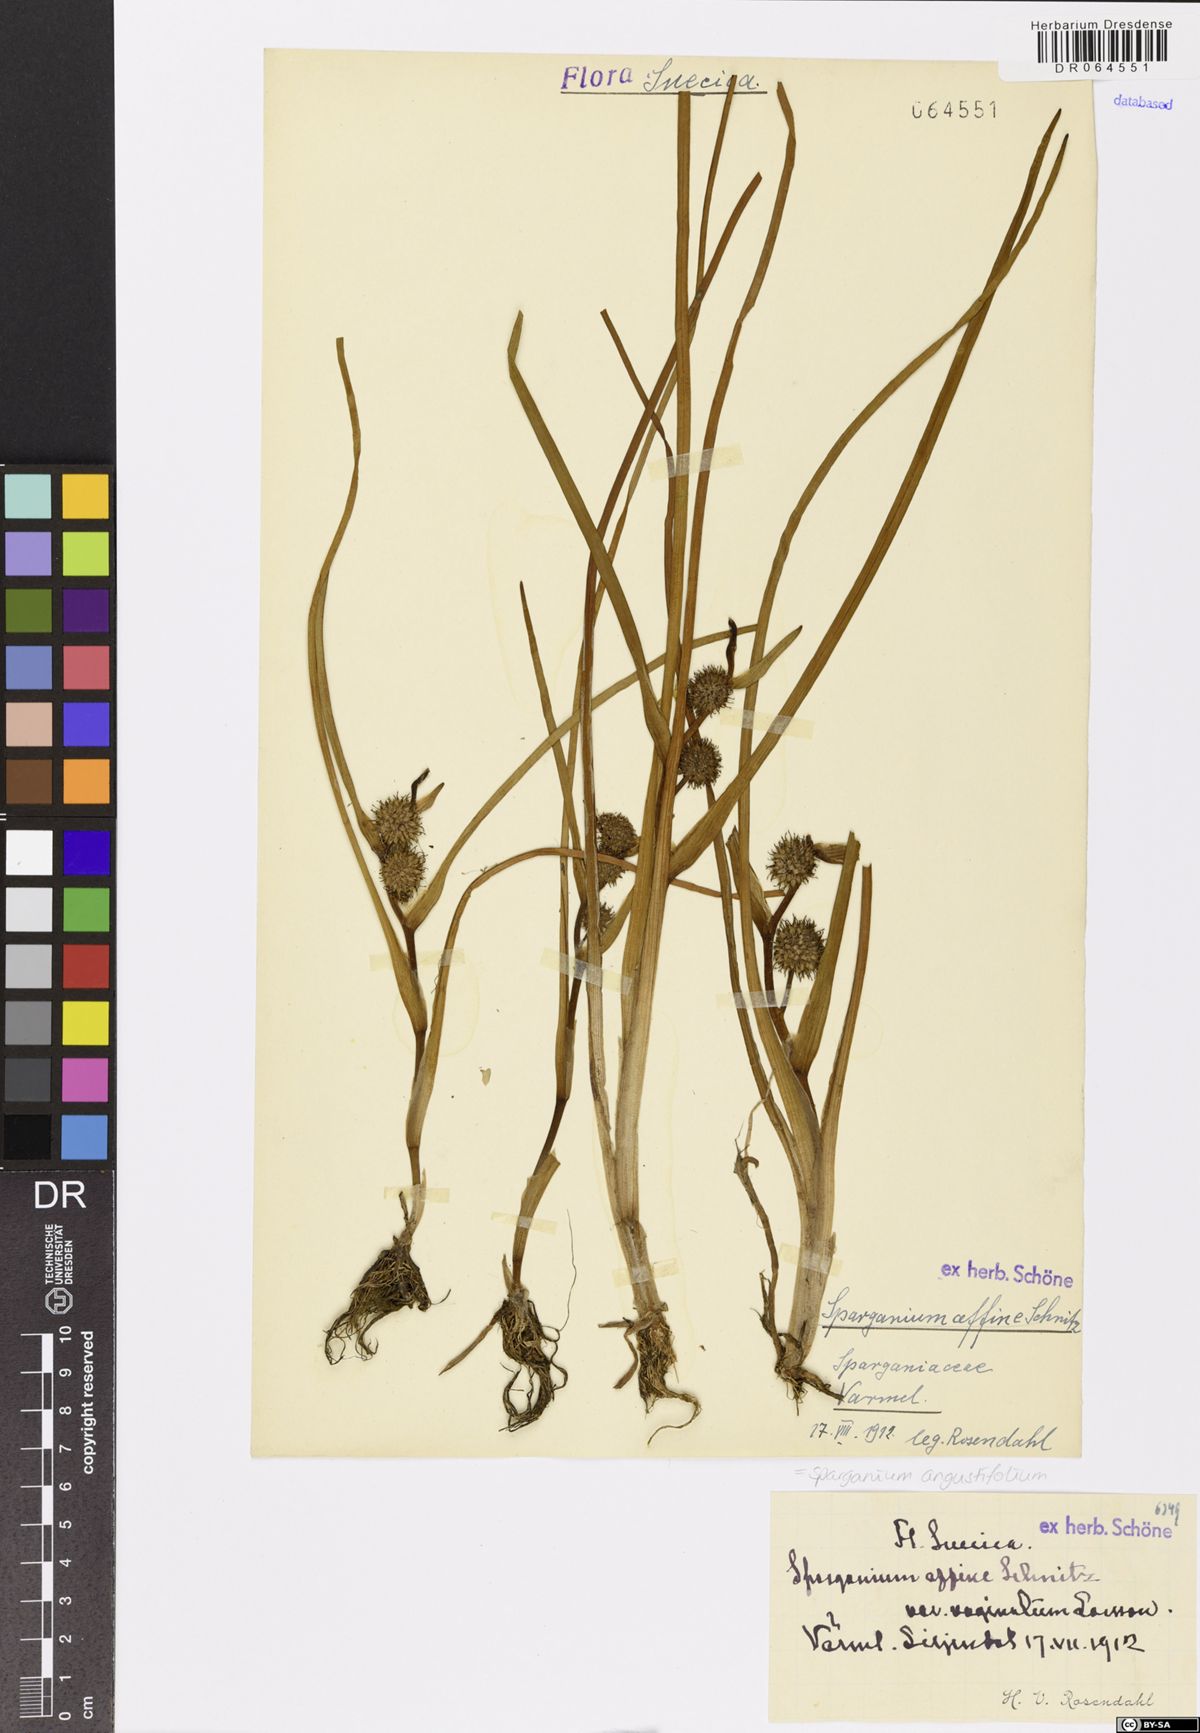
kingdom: Plantae
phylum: Tracheophyta
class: Liliopsida
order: Poales
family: Typhaceae
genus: Sparganium
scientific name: Sparganium angustifolium
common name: Floating bur-reed
